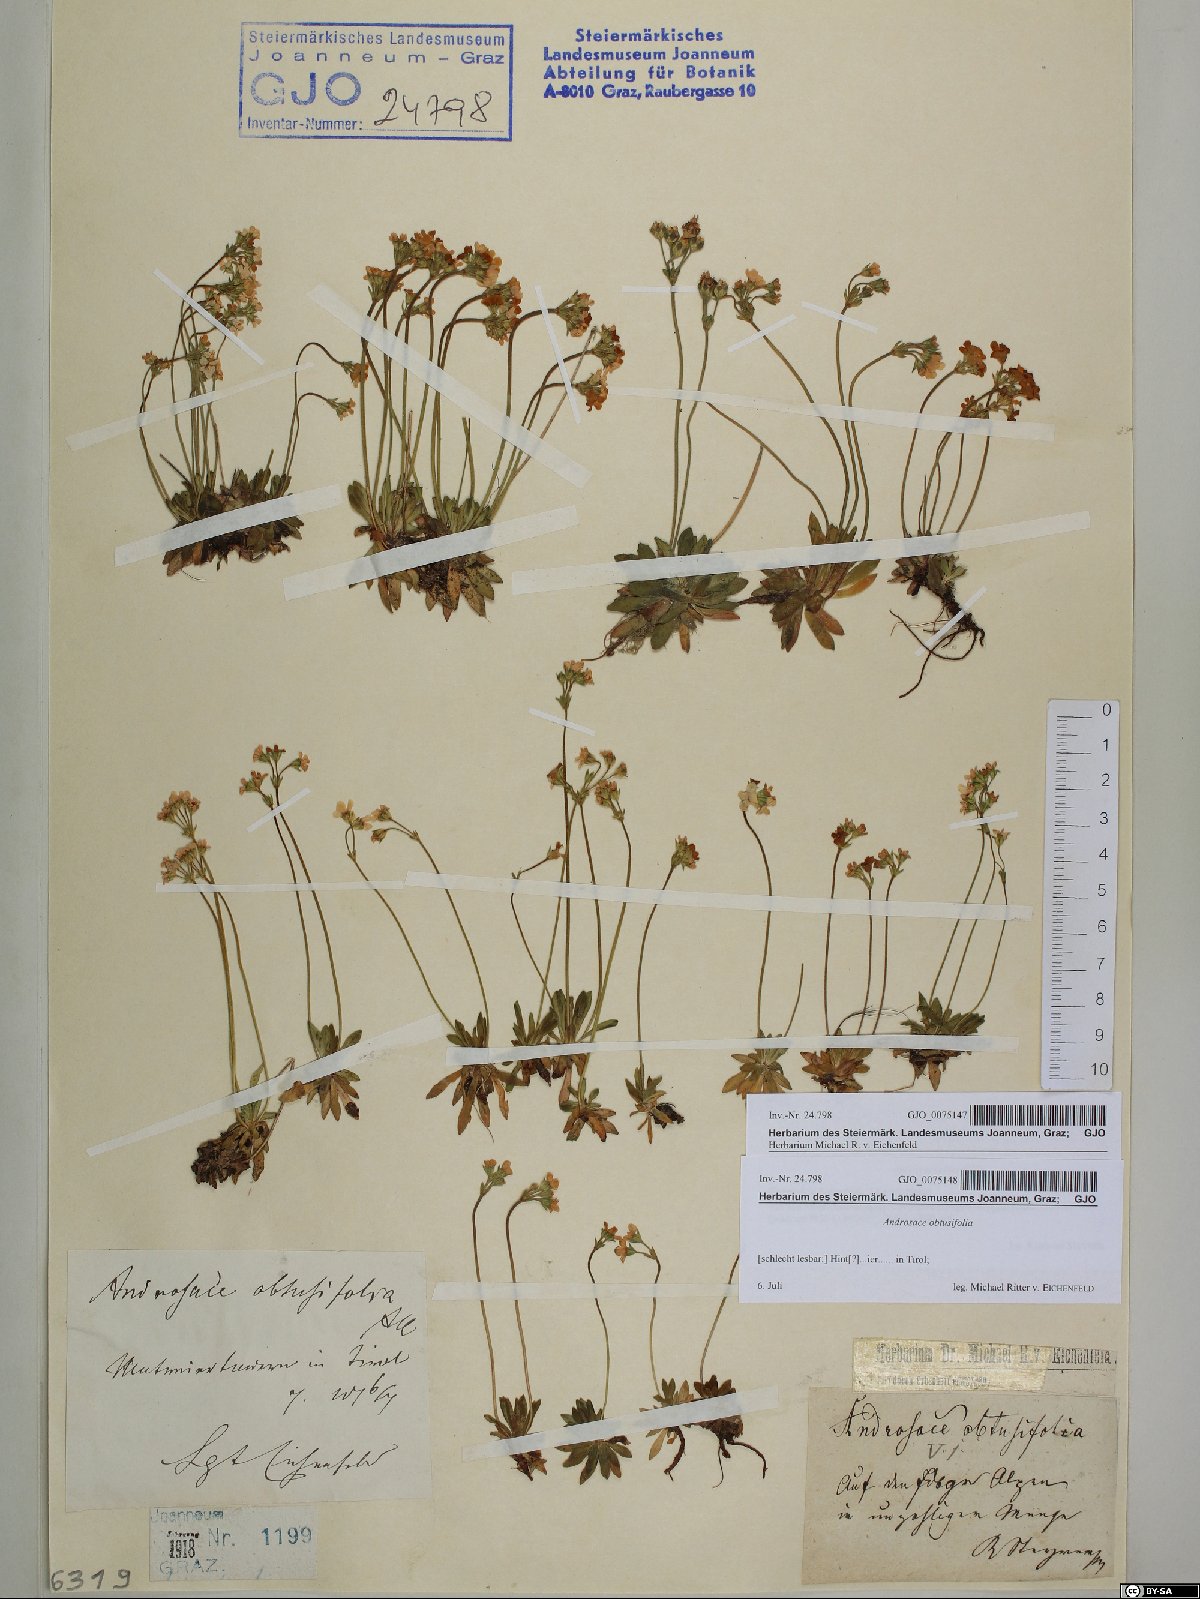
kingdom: Plantae
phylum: Tracheophyta
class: Magnoliopsida
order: Ericales
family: Primulaceae
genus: Androsace
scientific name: Androsace obtusifolia
